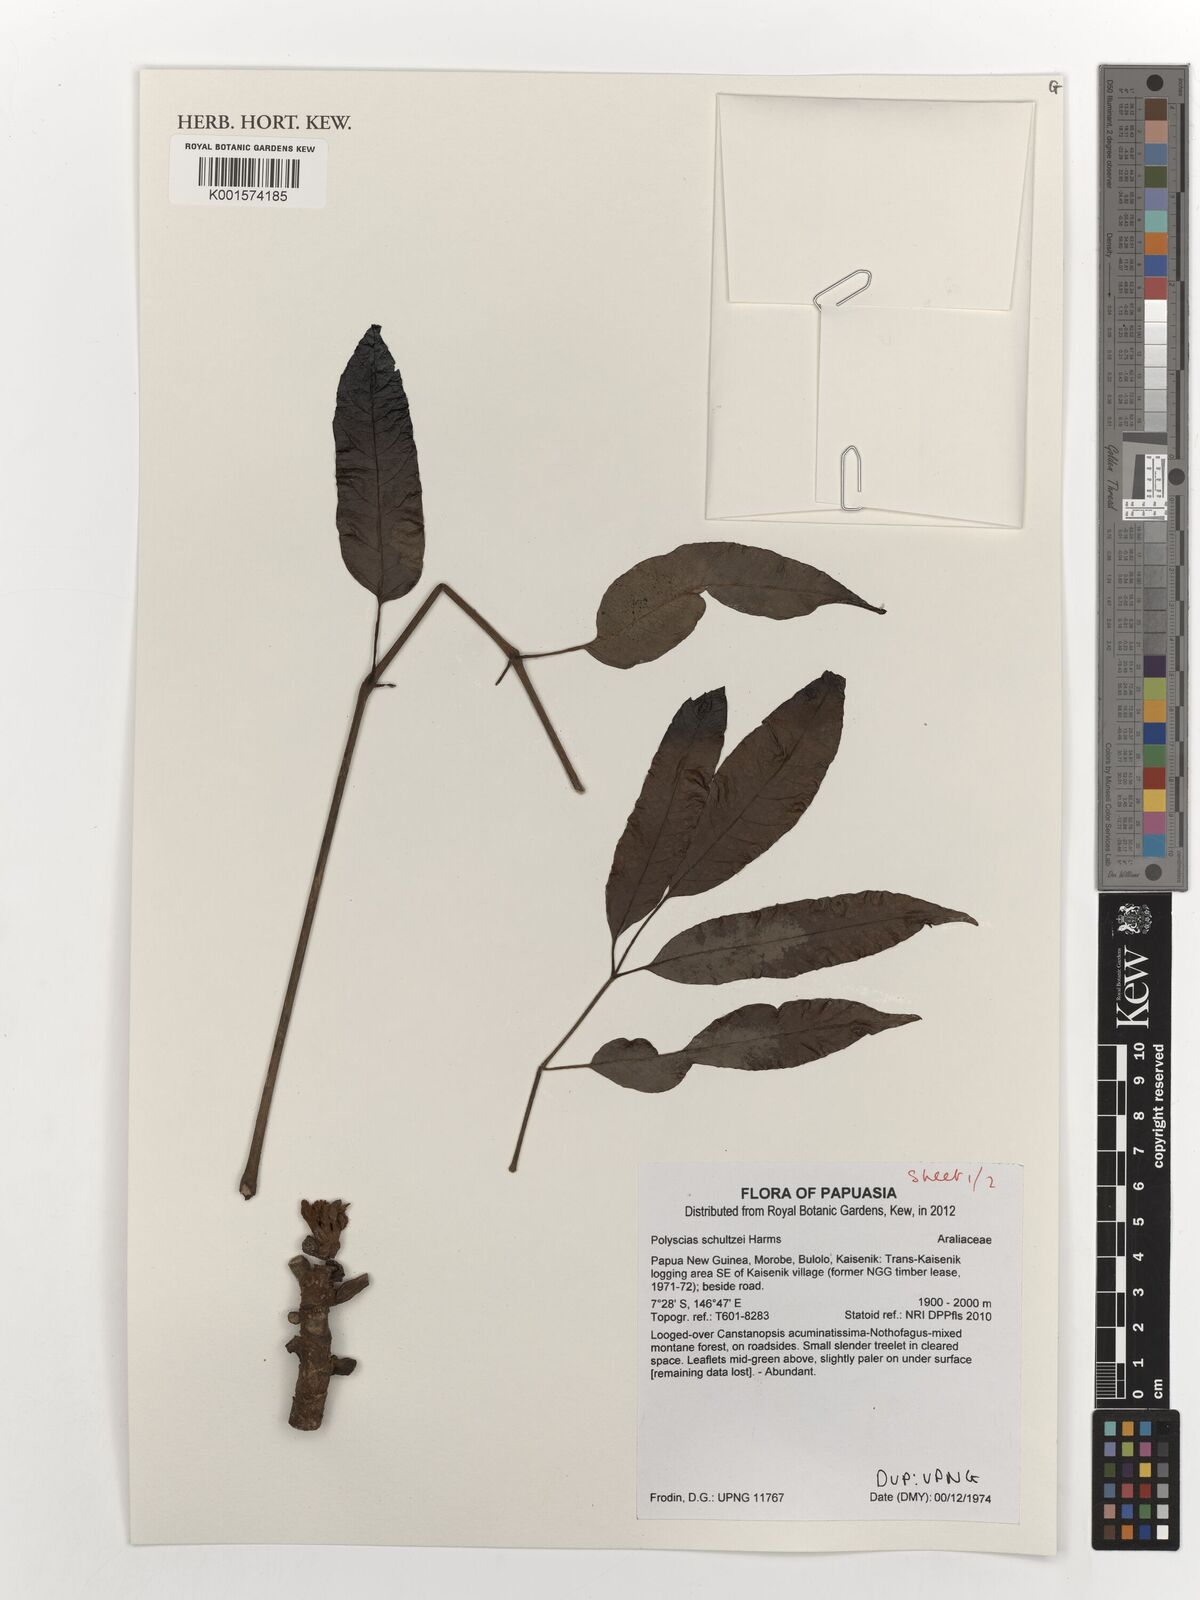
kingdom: Plantae
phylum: Tracheophyta
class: Magnoliopsida
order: Apiales
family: Araliaceae
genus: Polyscias
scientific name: Polyscias schultzei
